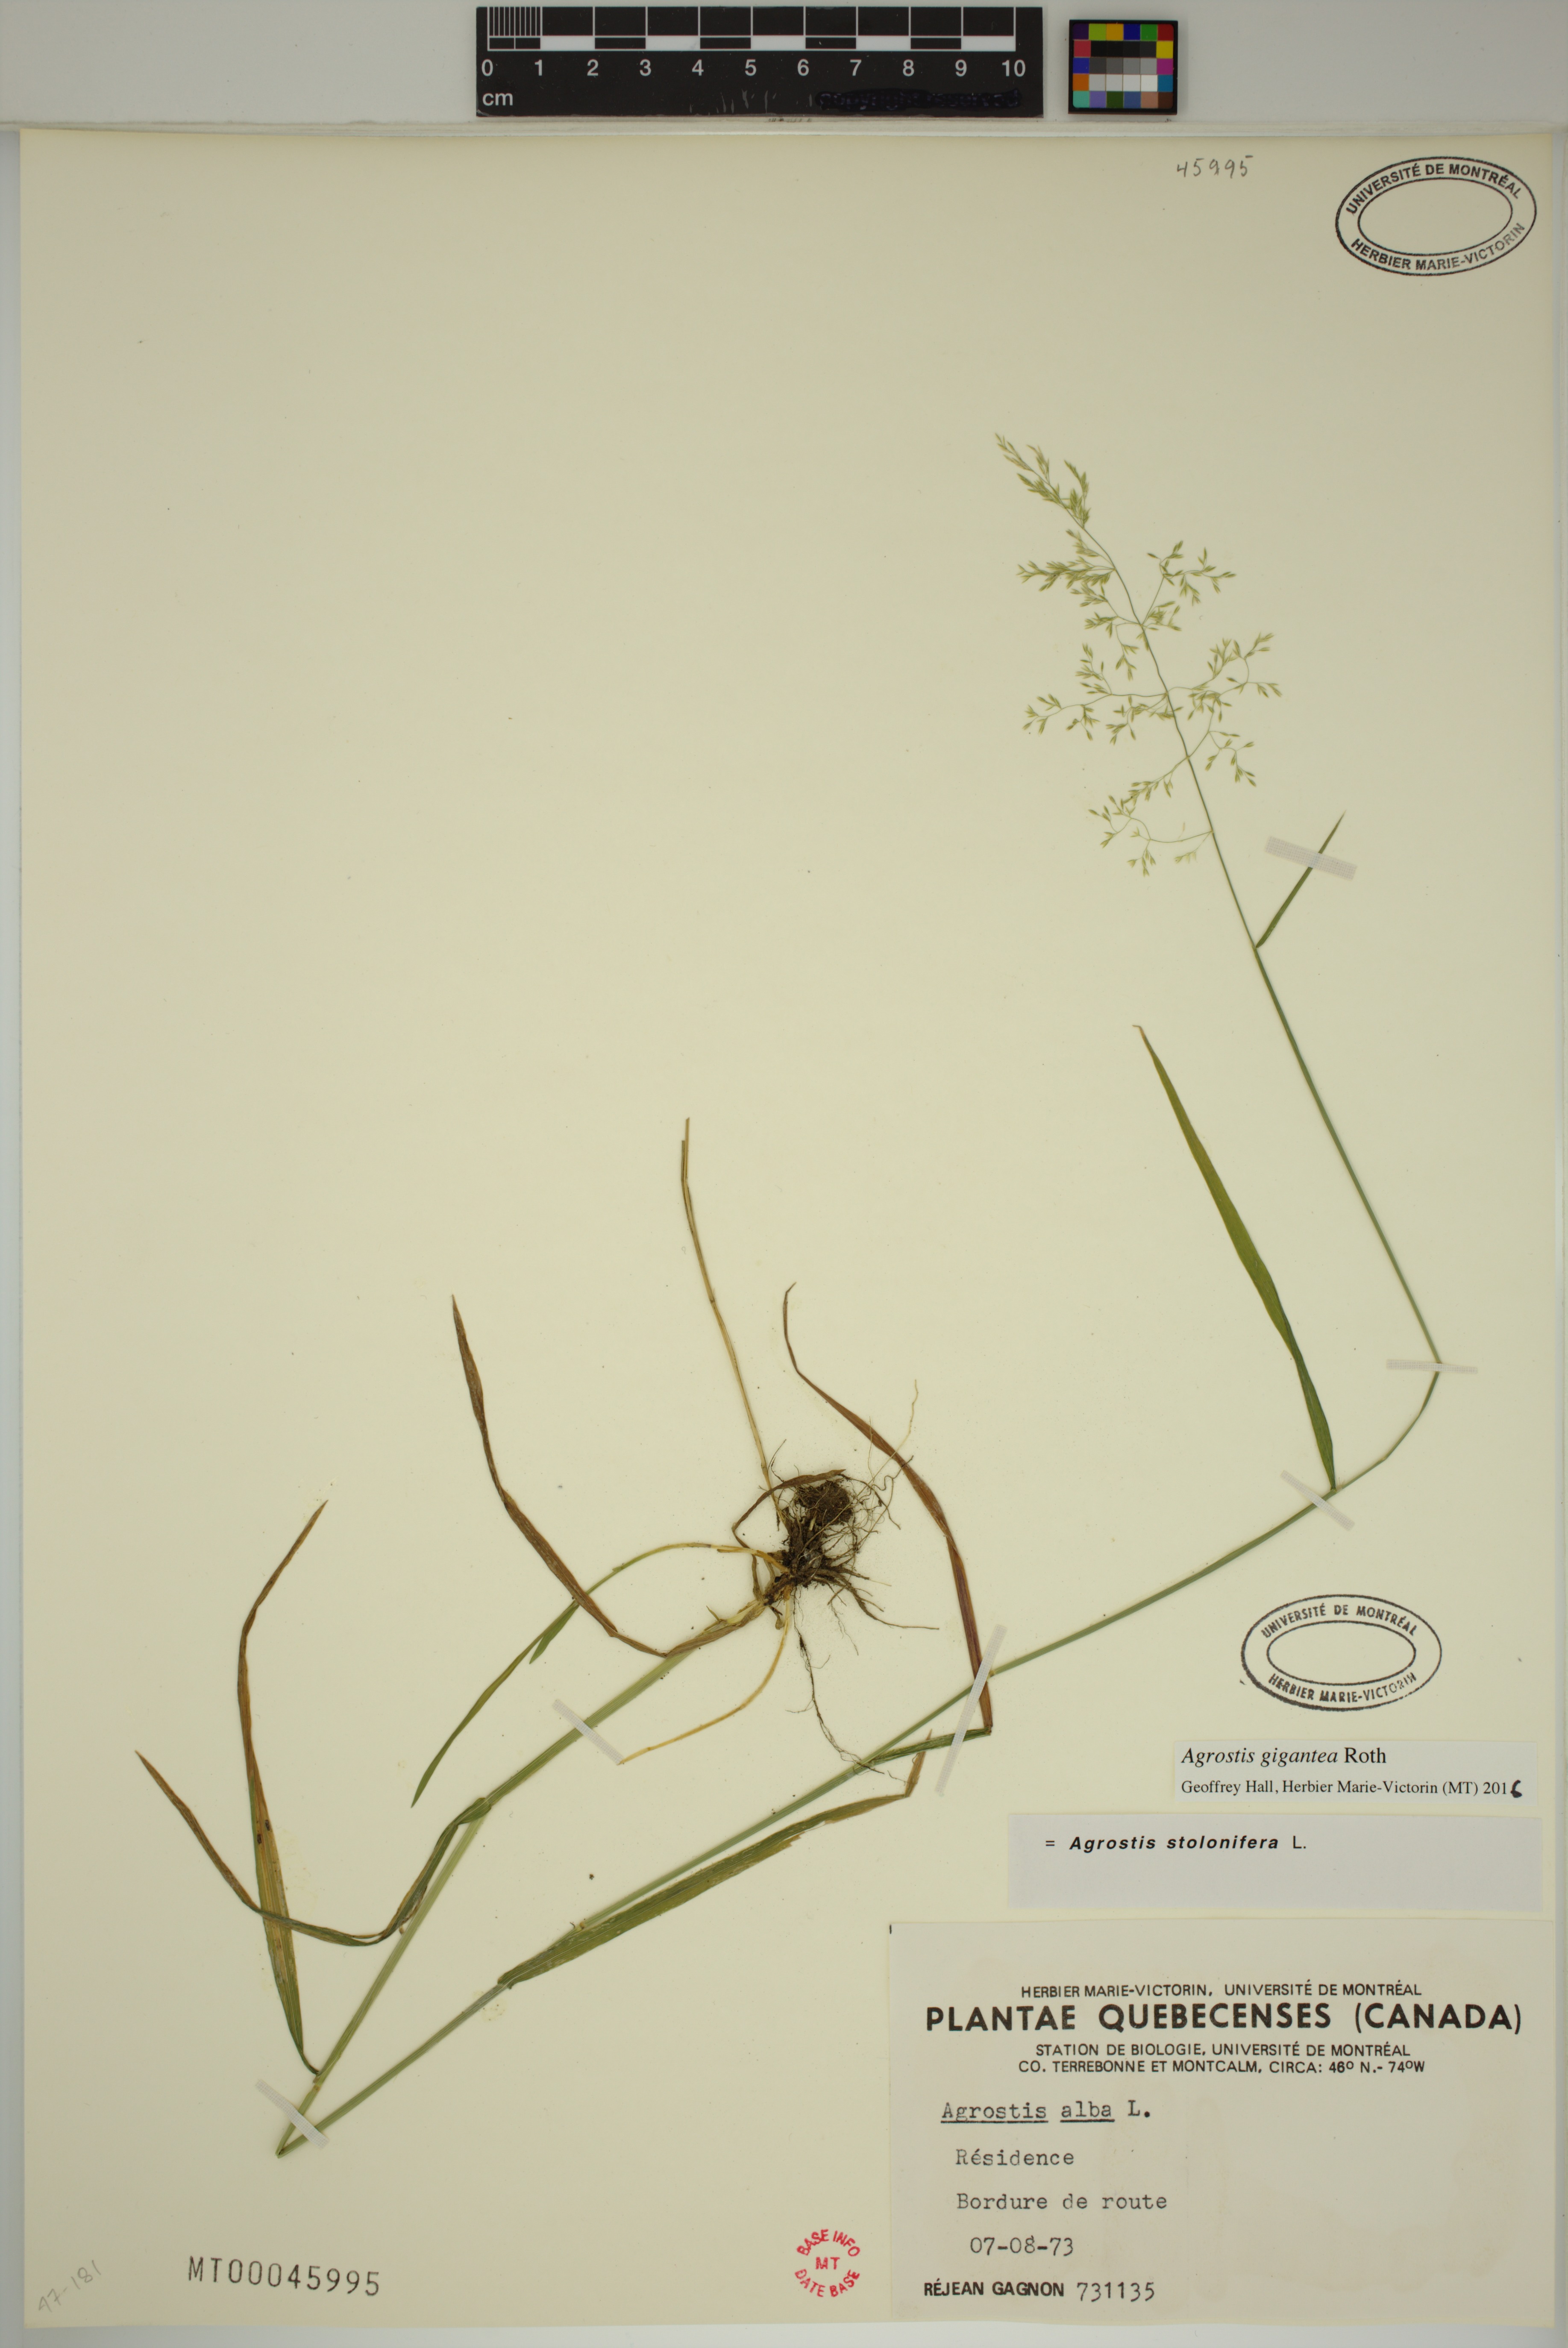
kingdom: Plantae
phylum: Tracheophyta
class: Liliopsida
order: Poales
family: Poaceae
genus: Agrostis
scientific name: Agrostis gigantea
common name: Black bent
